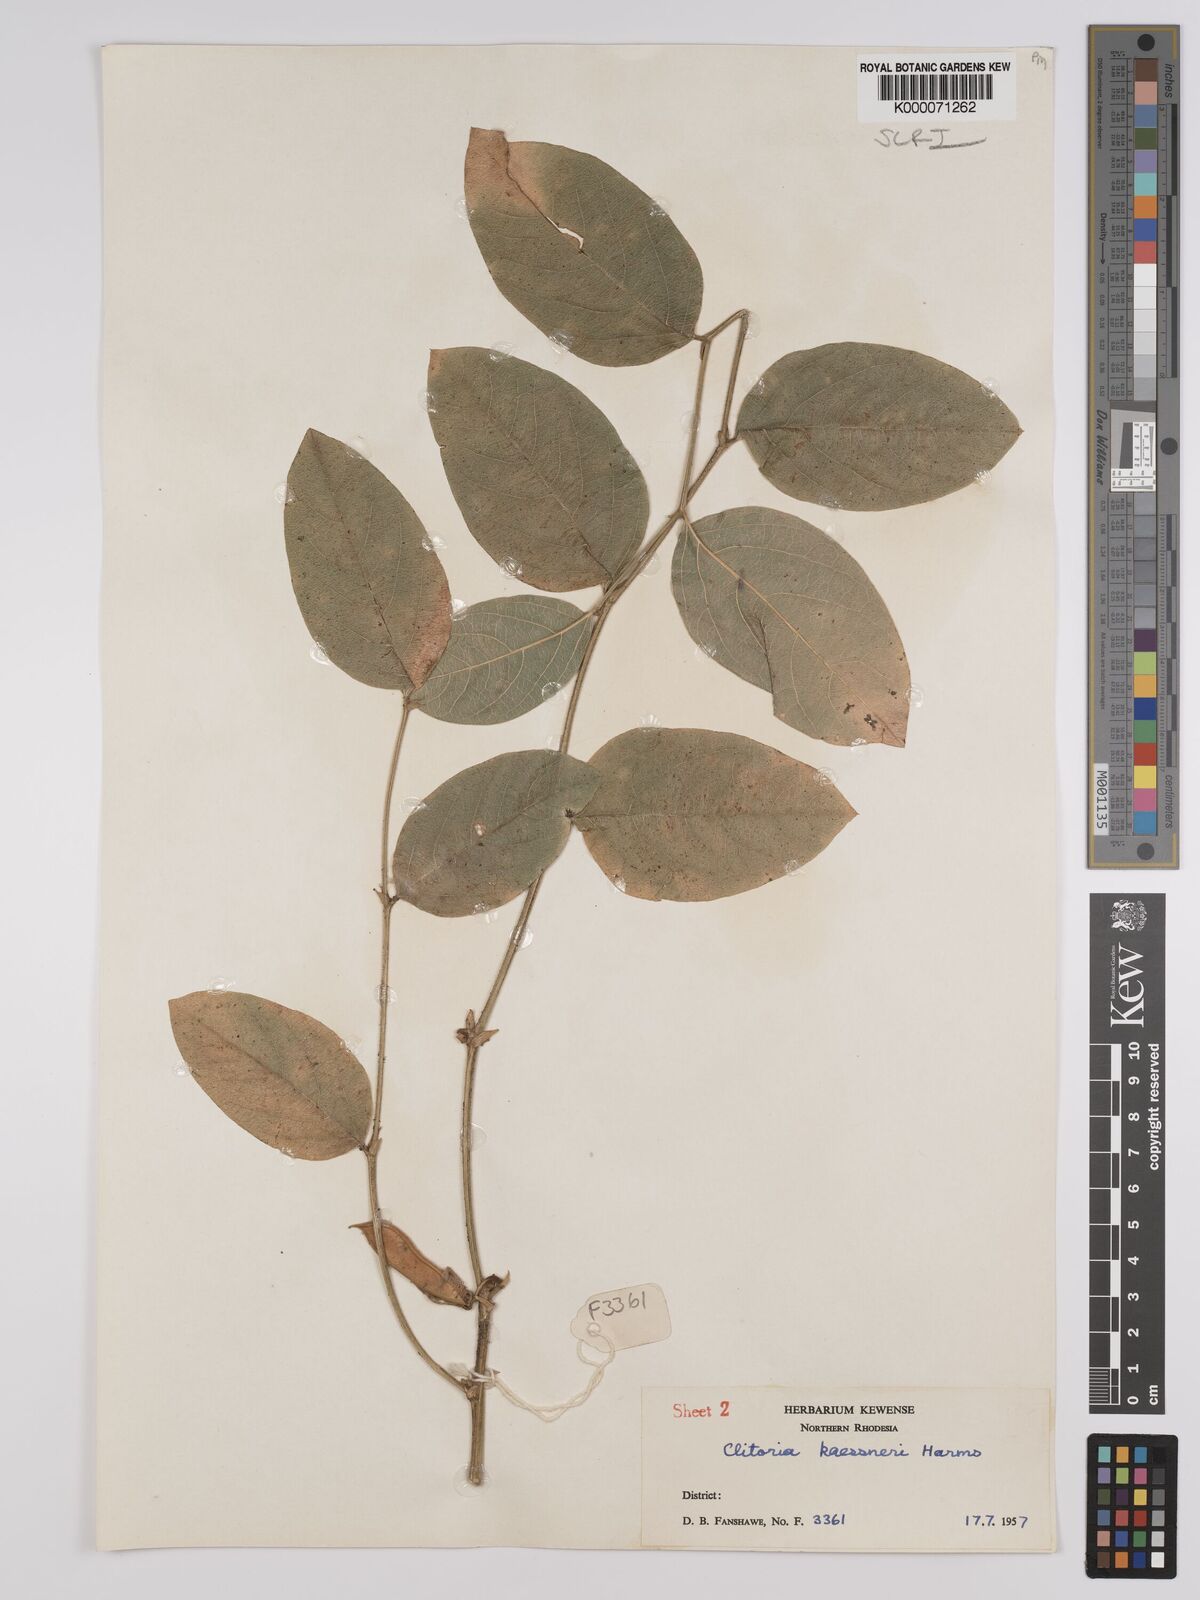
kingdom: Plantae
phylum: Tracheophyta
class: Magnoliopsida
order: Fabales
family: Fabaceae
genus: Clitoria
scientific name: Clitoria kaessneri
